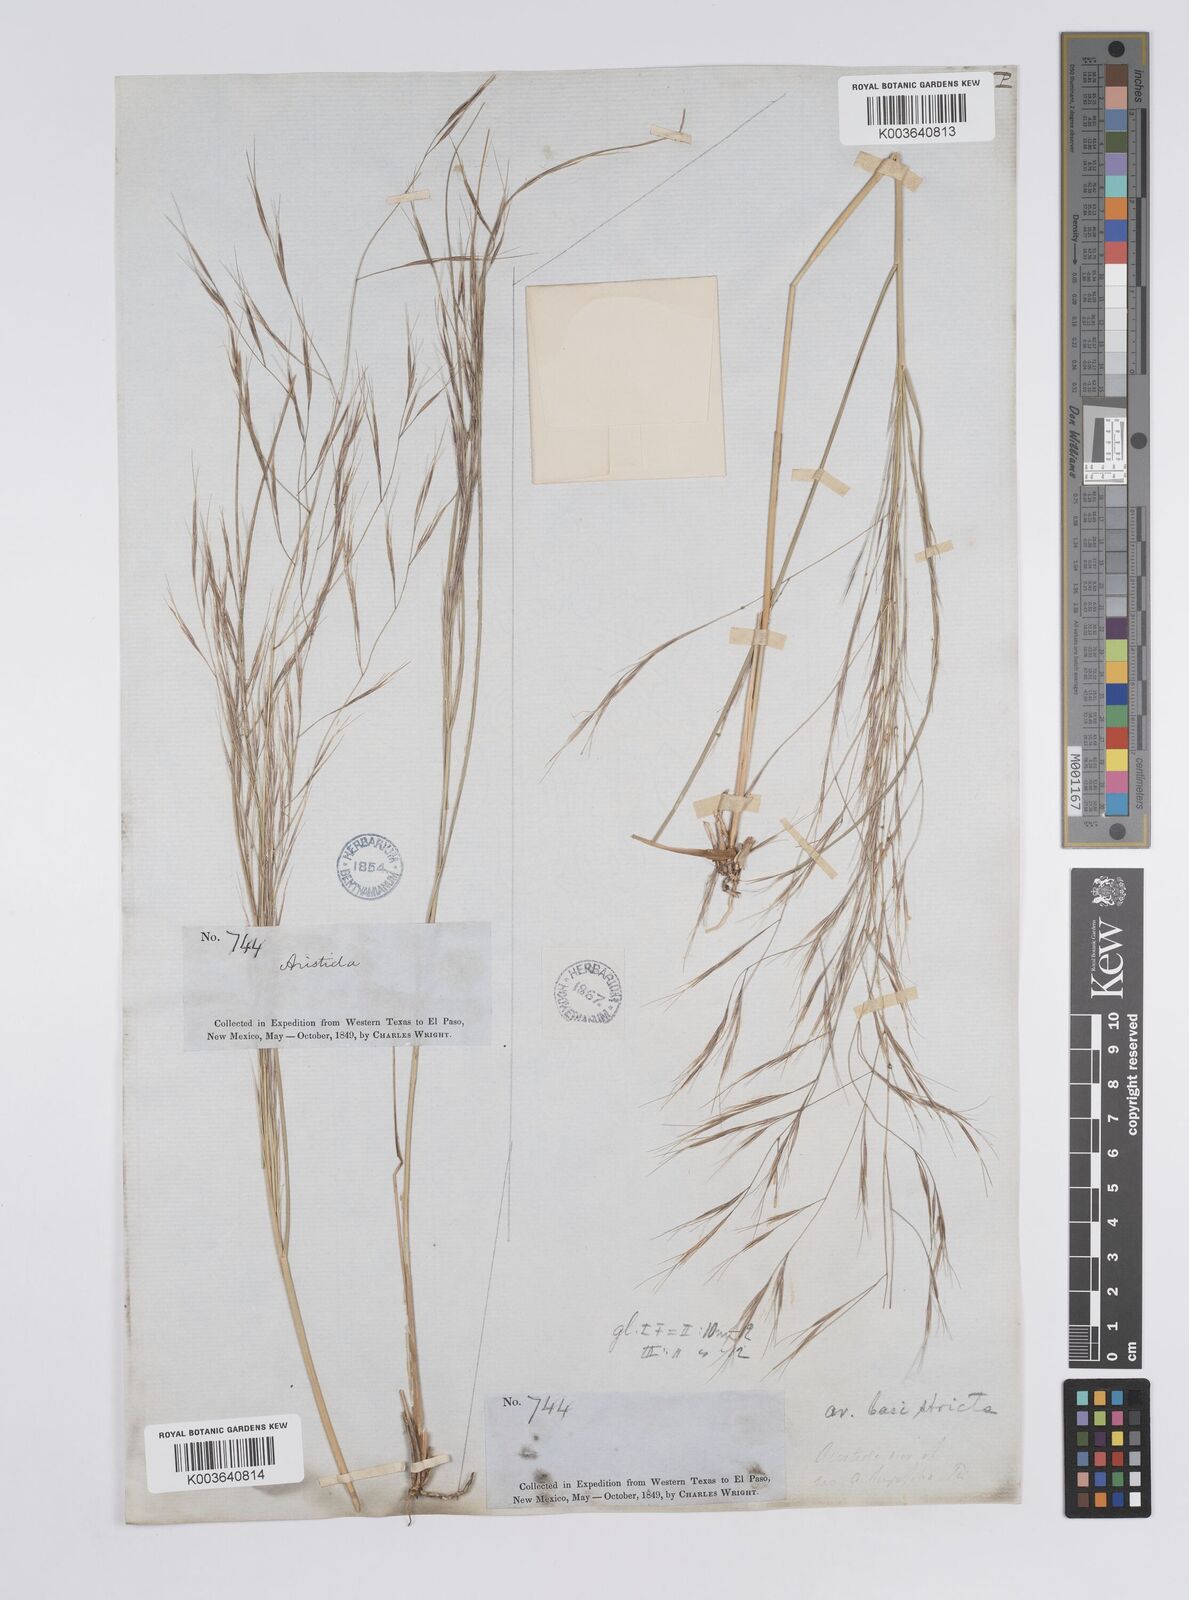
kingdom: Plantae
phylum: Tracheophyta
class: Liliopsida
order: Poales
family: Poaceae
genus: Aristida
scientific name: Aristida hamulosa
